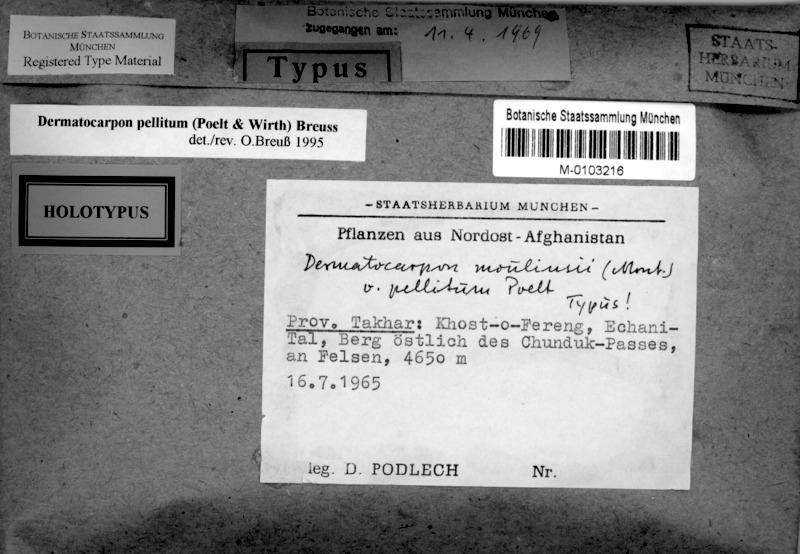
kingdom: Fungi
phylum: Ascomycota
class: Eurotiomycetes
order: Verrucariales
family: Verrucariaceae
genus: Dermatocarpon
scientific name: Dermatocarpon
